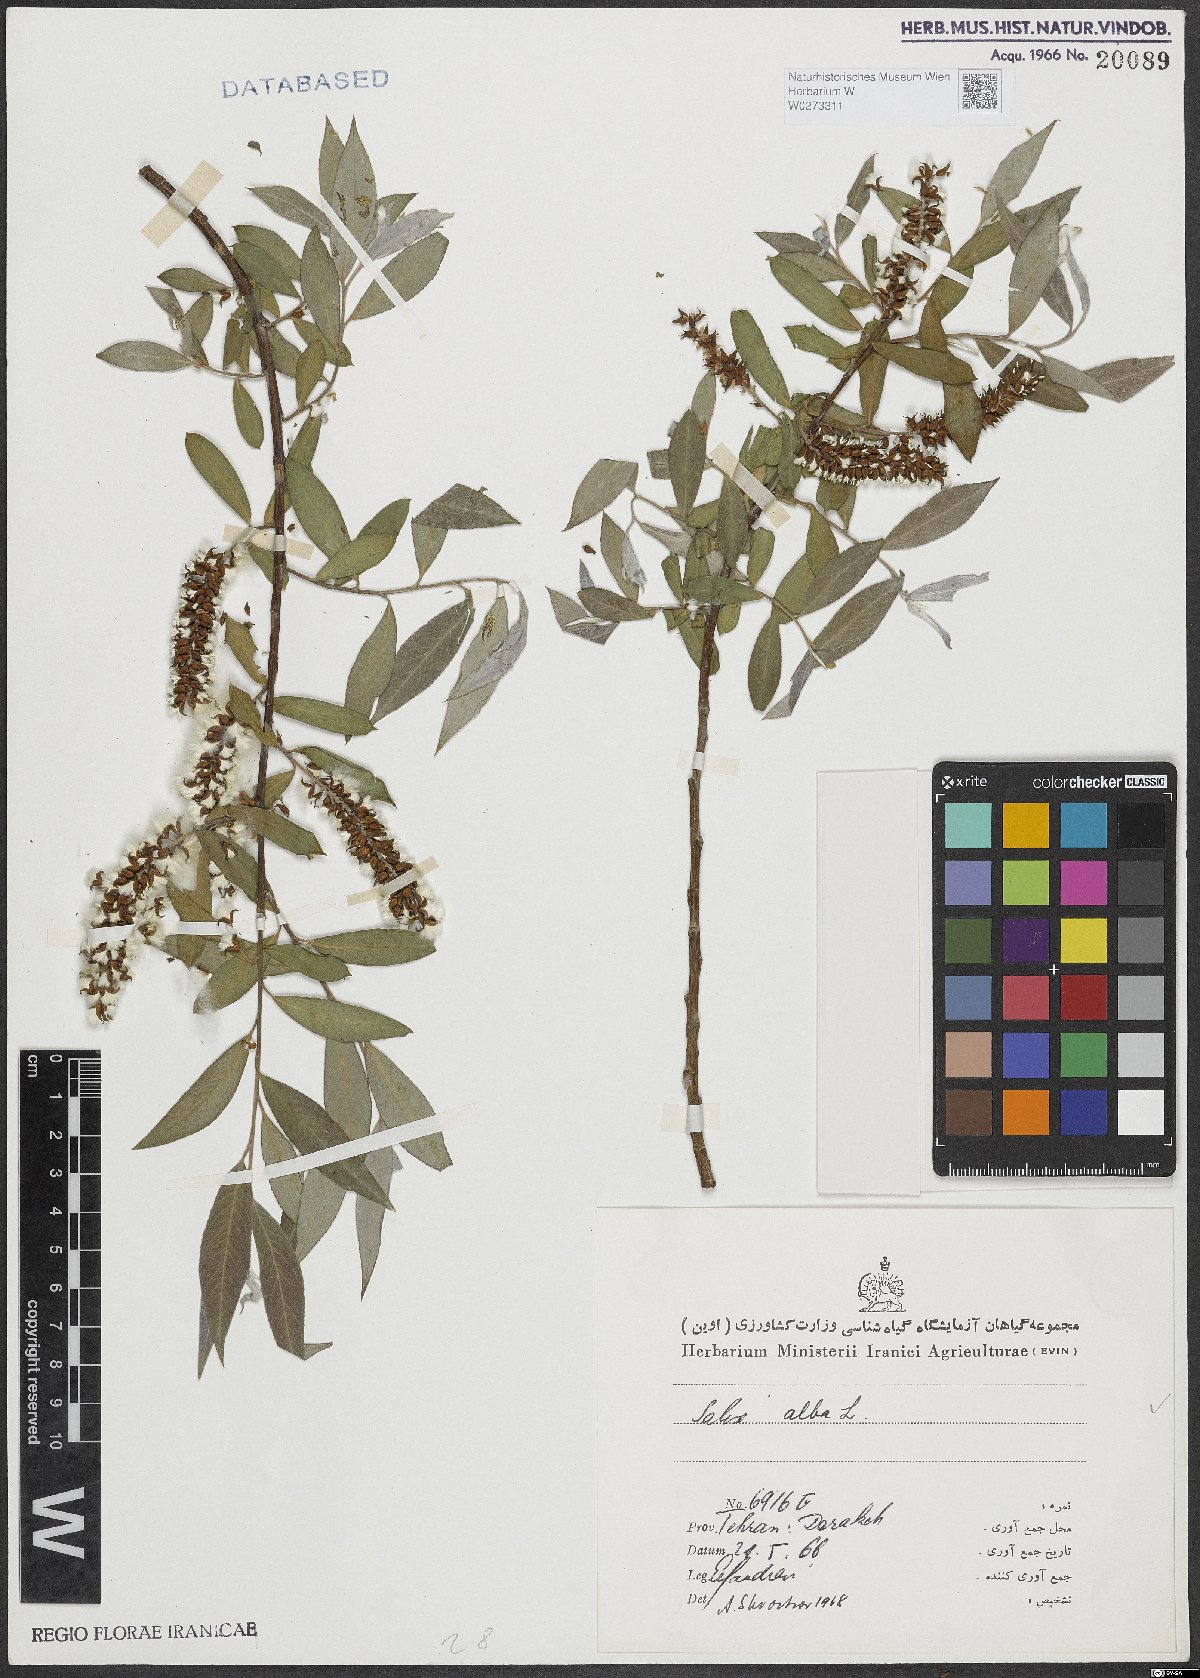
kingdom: Plantae
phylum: Tracheophyta
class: Magnoliopsida
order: Malpighiales
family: Salicaceae
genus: Salix
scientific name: Salix alba
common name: White willow
